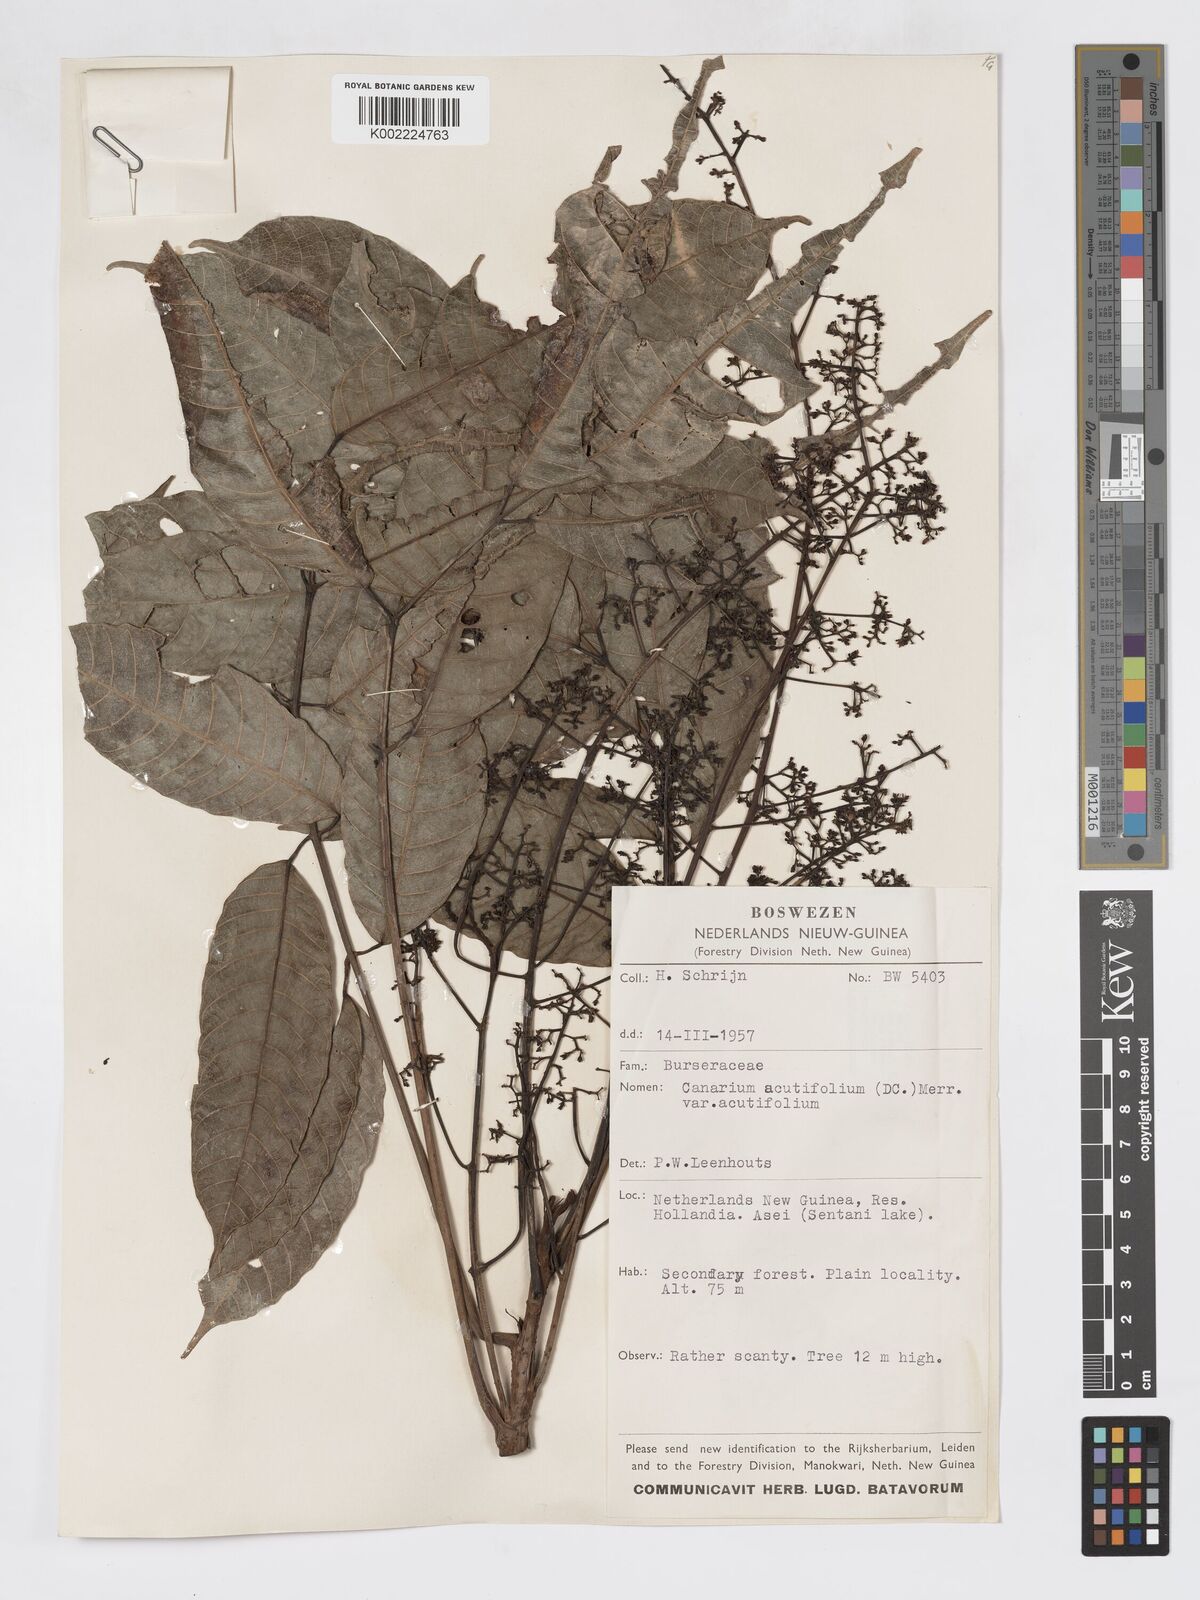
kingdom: Plantae
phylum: Tracheophyta
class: Magnoliopsida
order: Sapindales
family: Burseraceae
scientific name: Burseraceae
